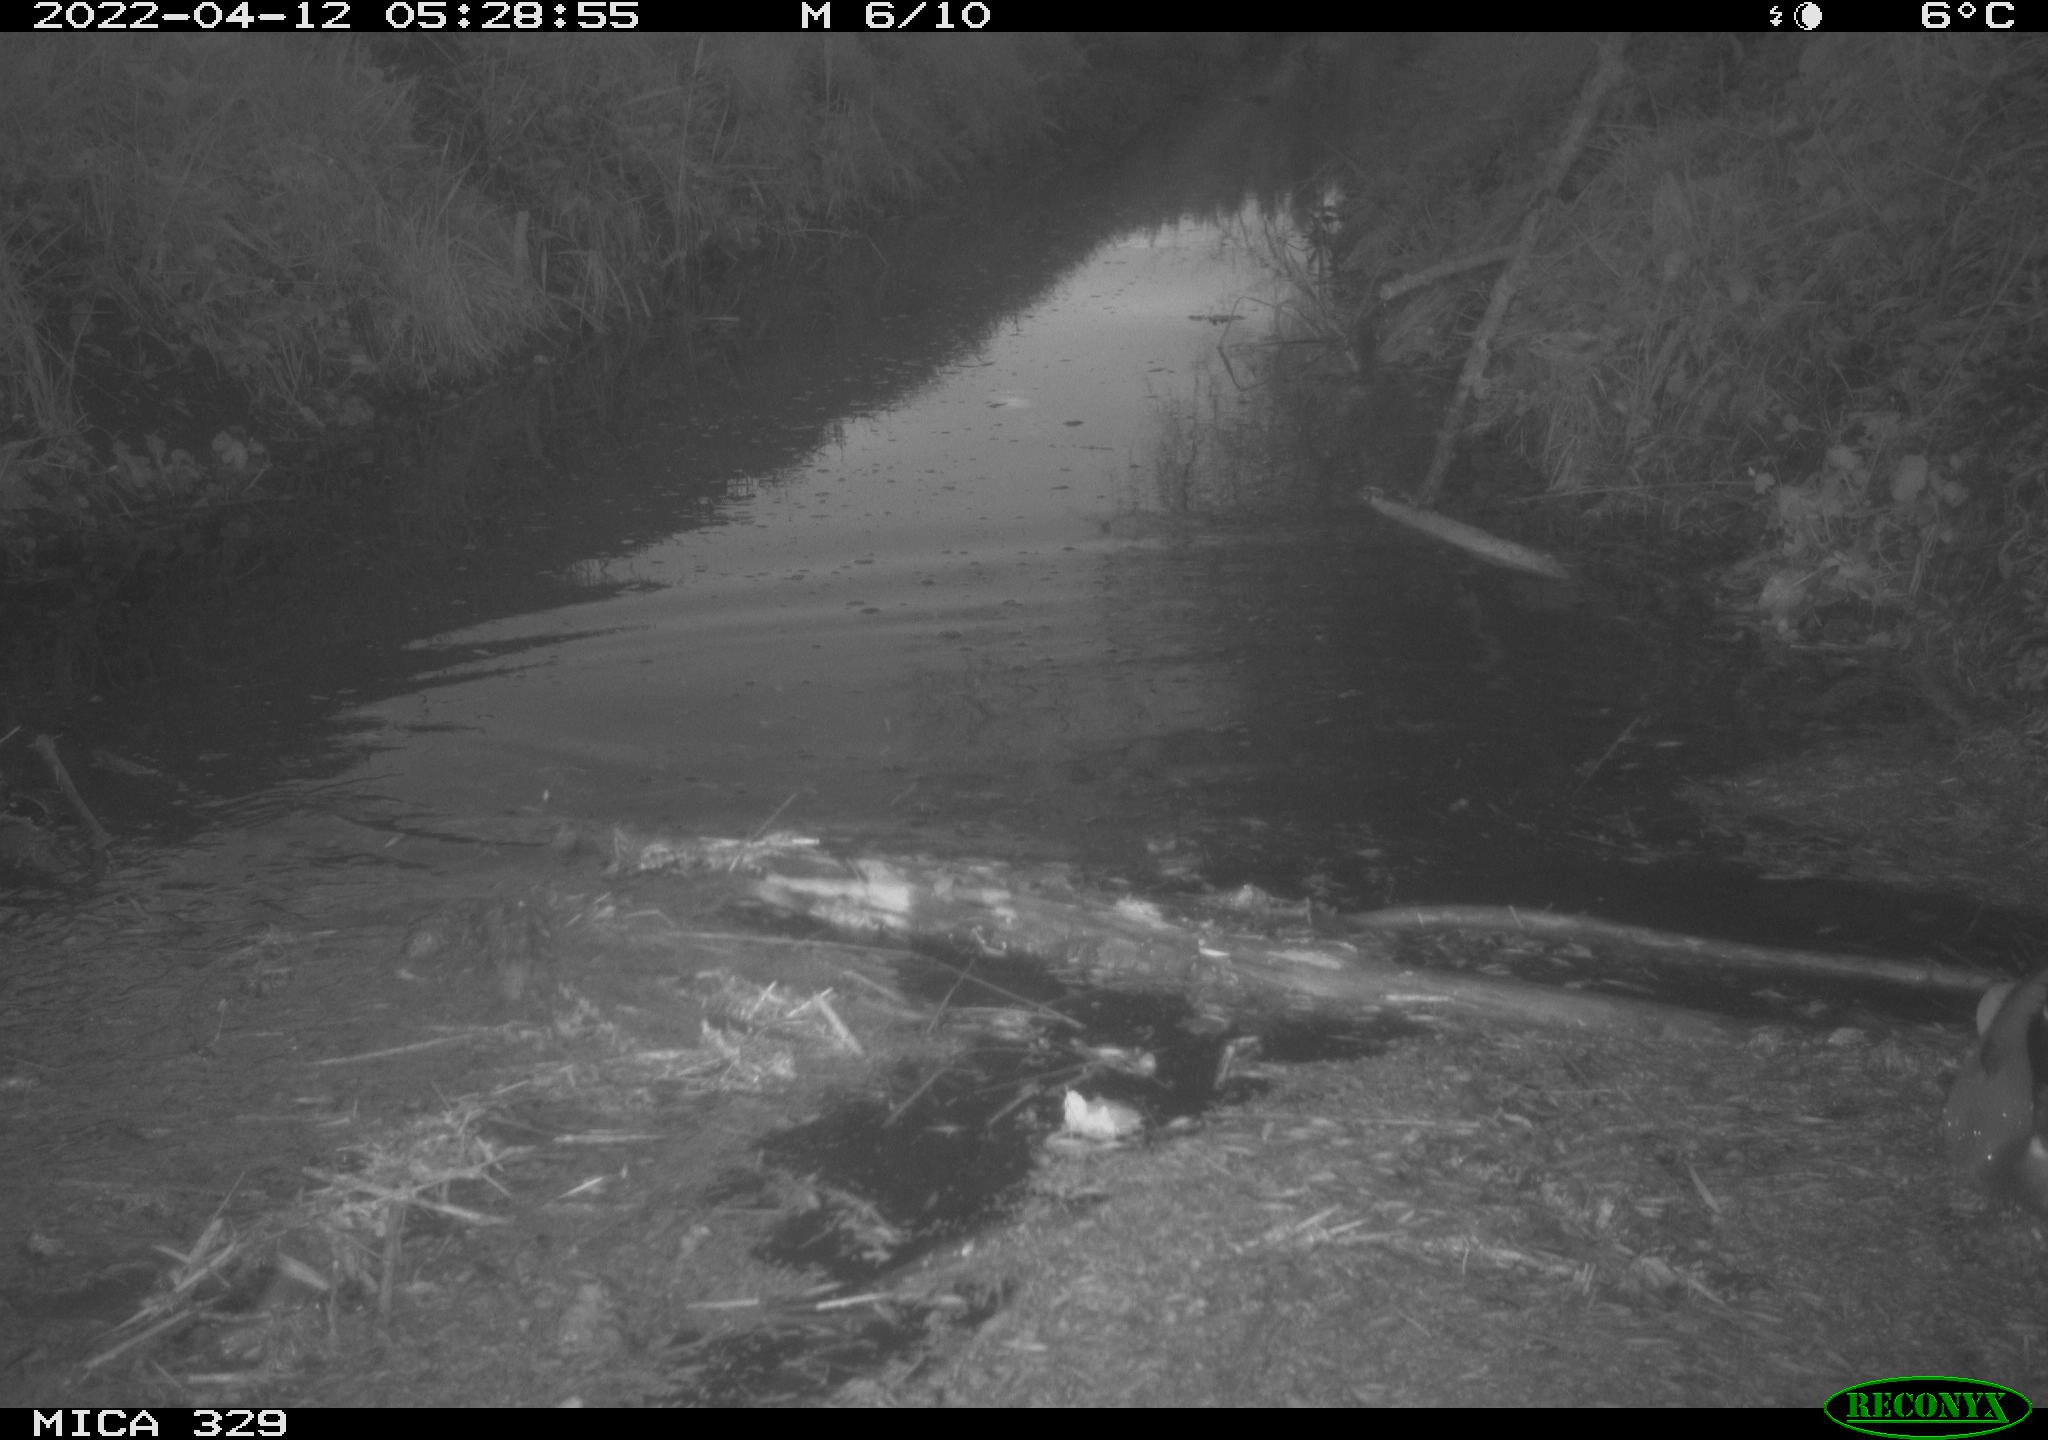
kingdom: Animalia
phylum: Chordata
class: Aves
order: Anseriformes
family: Anatidae
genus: Anas
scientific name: Anas platyrhynchos
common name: Mallard
